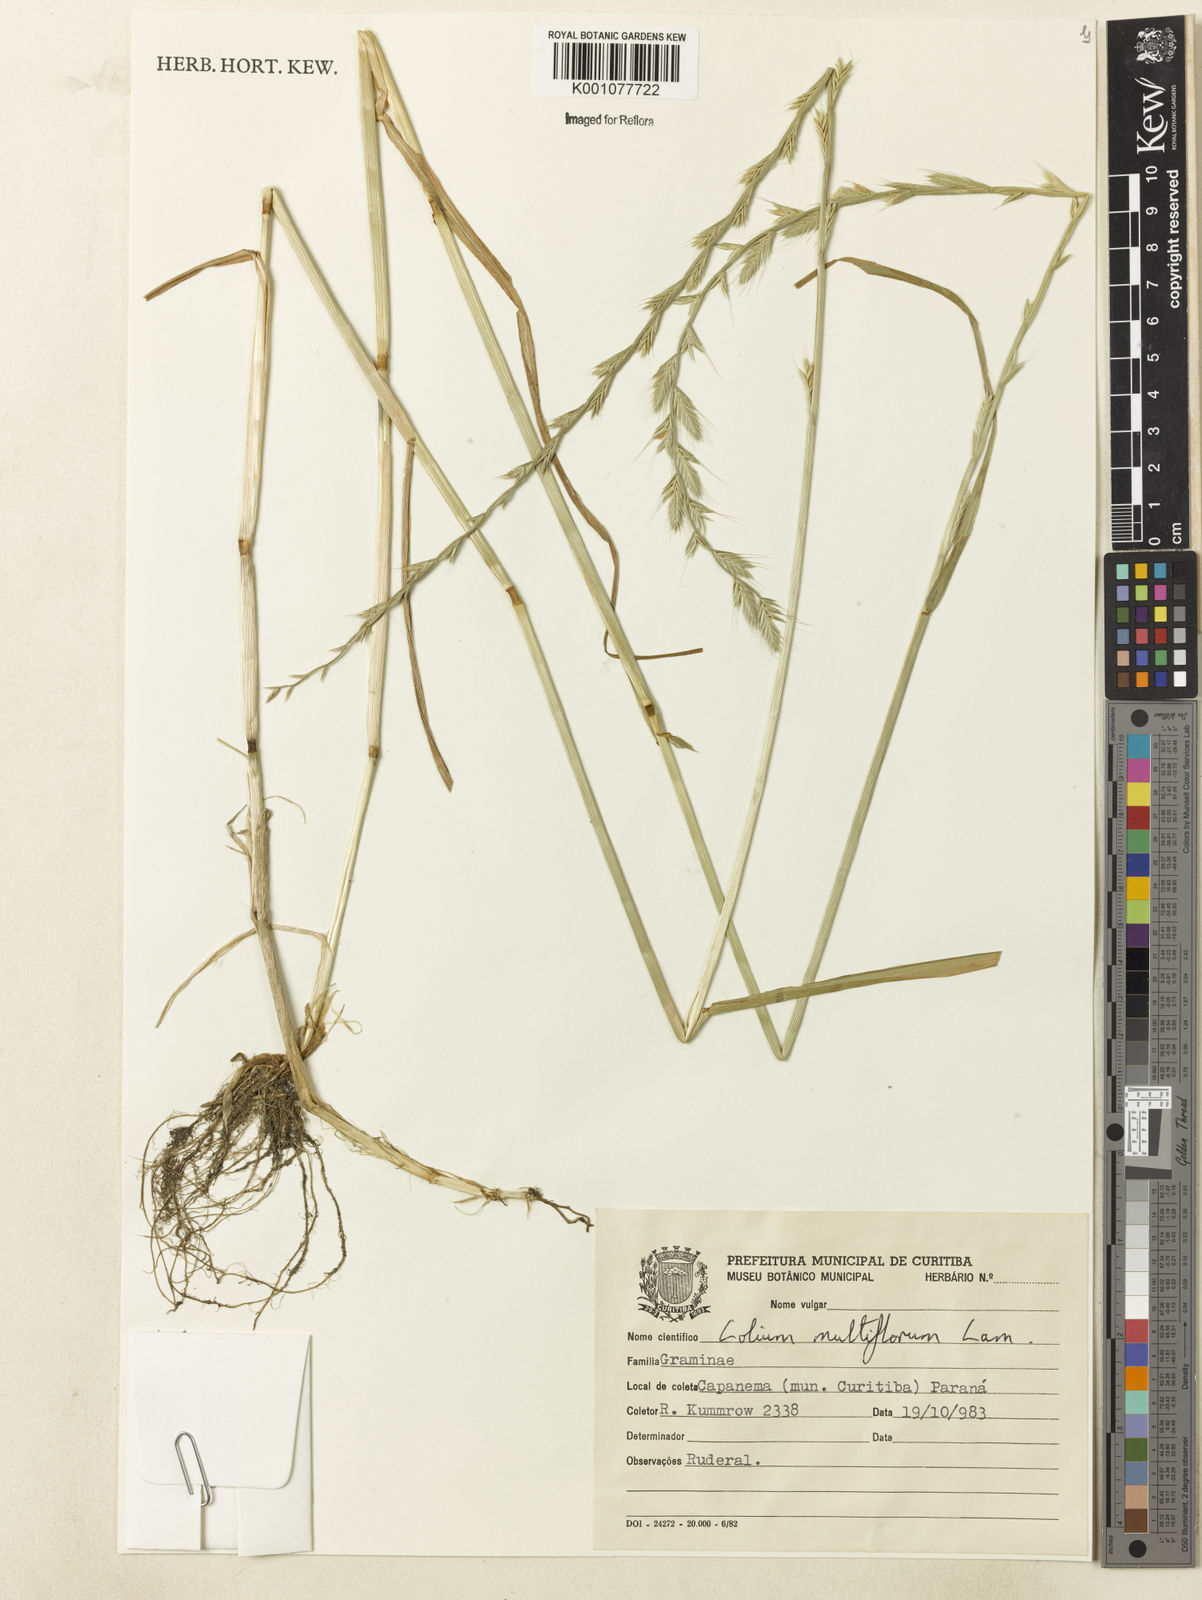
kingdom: Plantae
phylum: Tracheophyta
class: Liliopsida
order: Poales
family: Poaceae
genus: Lolium
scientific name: Lolium multiflorum
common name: Annual ryegrass
